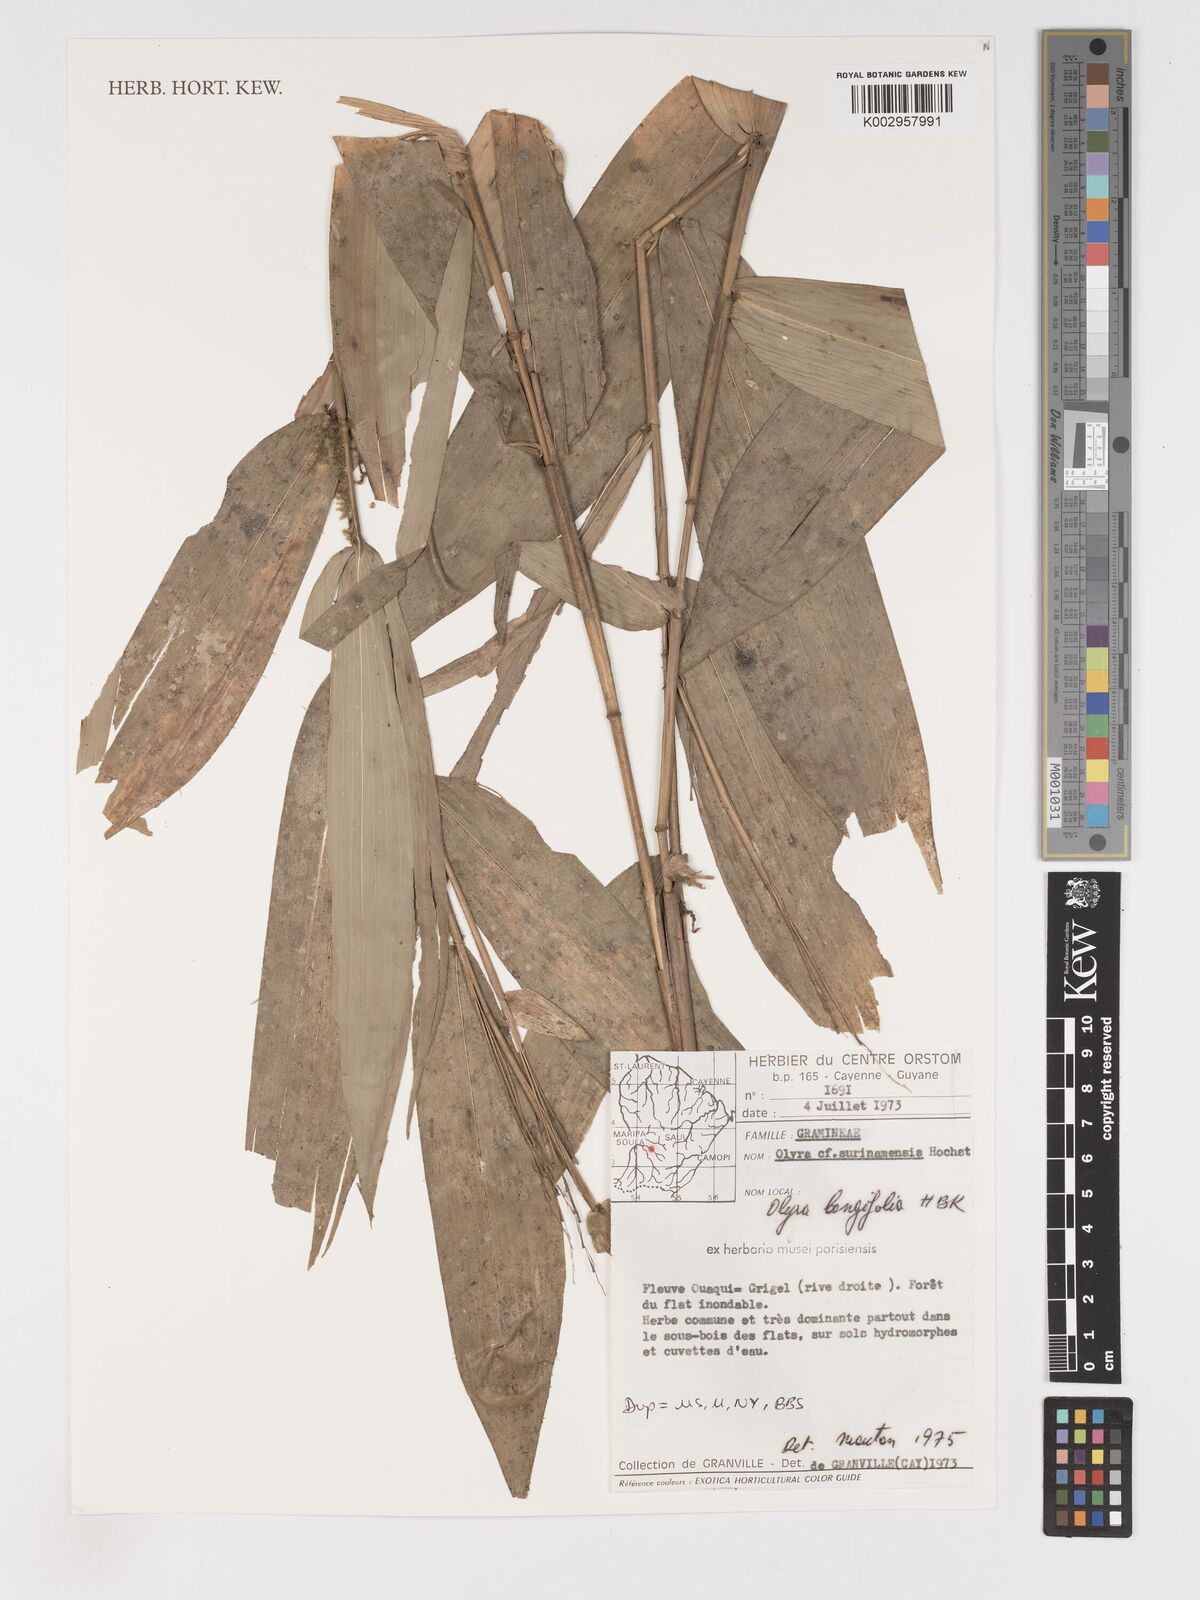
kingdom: Plantae
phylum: Tracheophyta
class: Liliopsida
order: Poales
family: Poaceae
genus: Olyra
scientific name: Olyra longifolia
